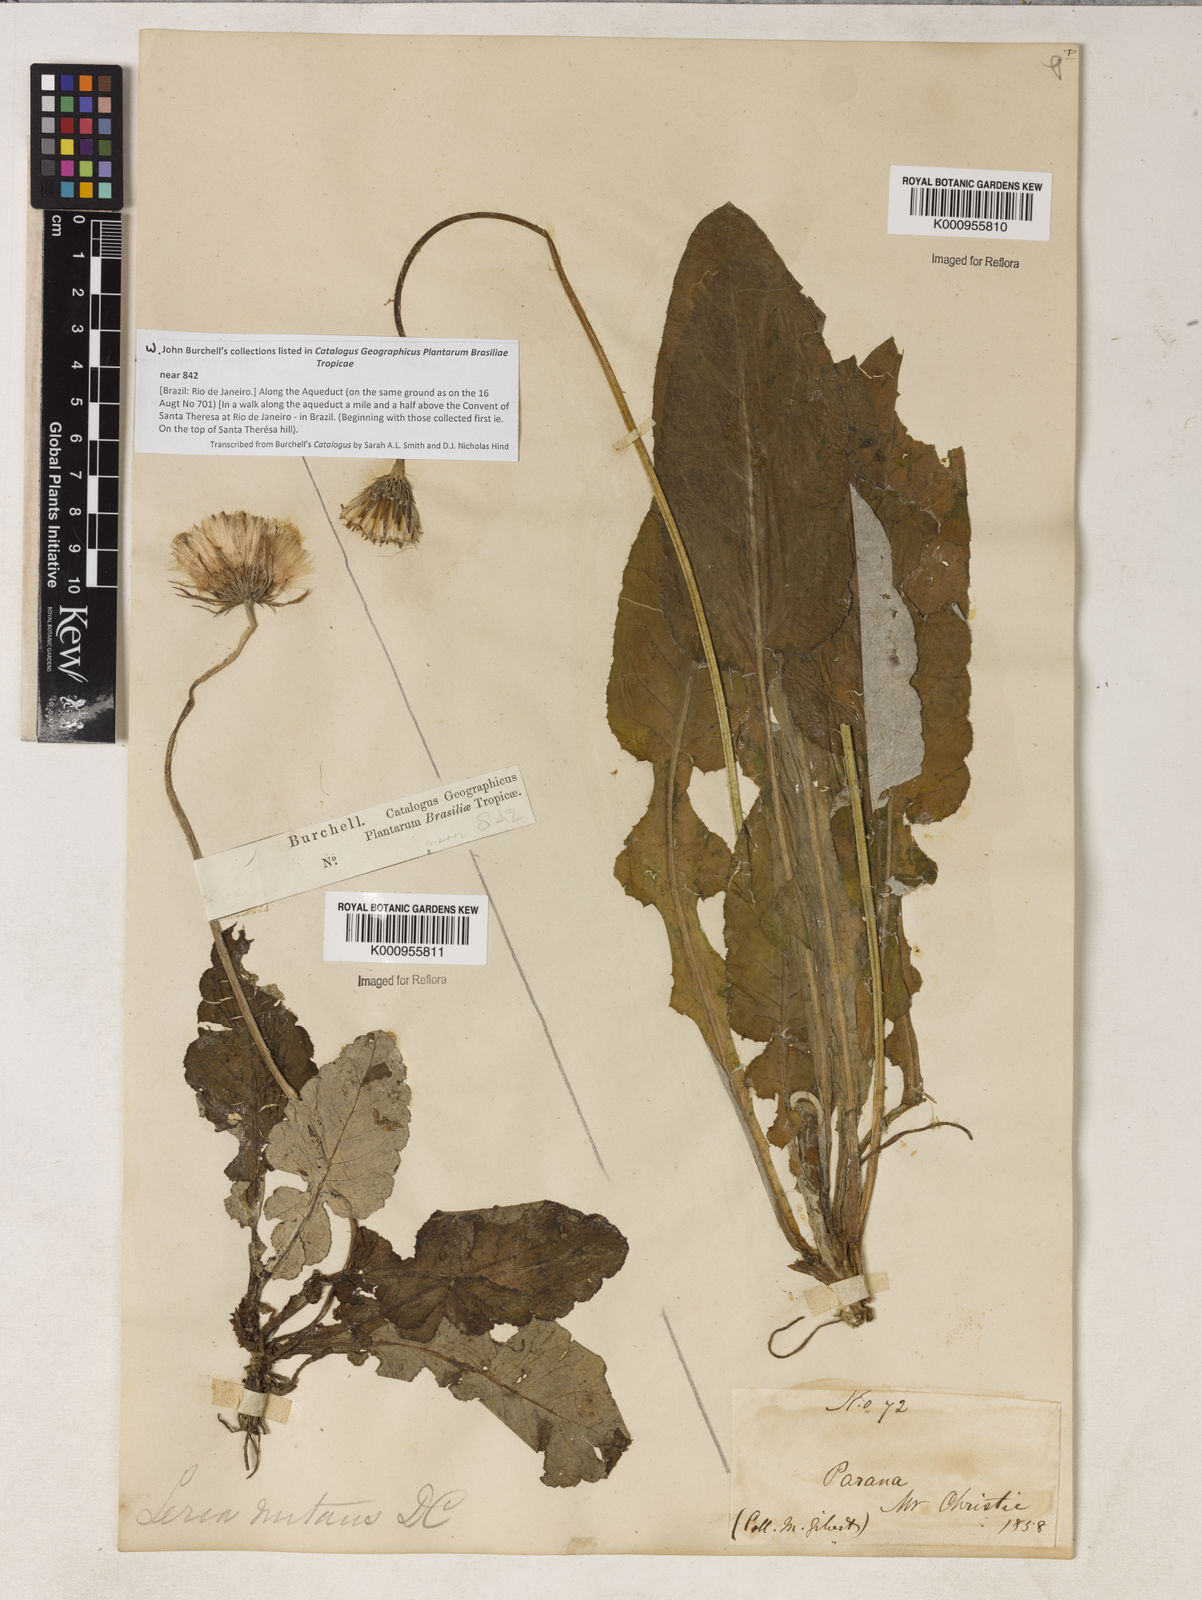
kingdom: Plantae
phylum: Tracheophyta
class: Magnoliopsida
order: Asterales
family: Asteraceae
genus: Chaptalia
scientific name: Chaptalia nutans
